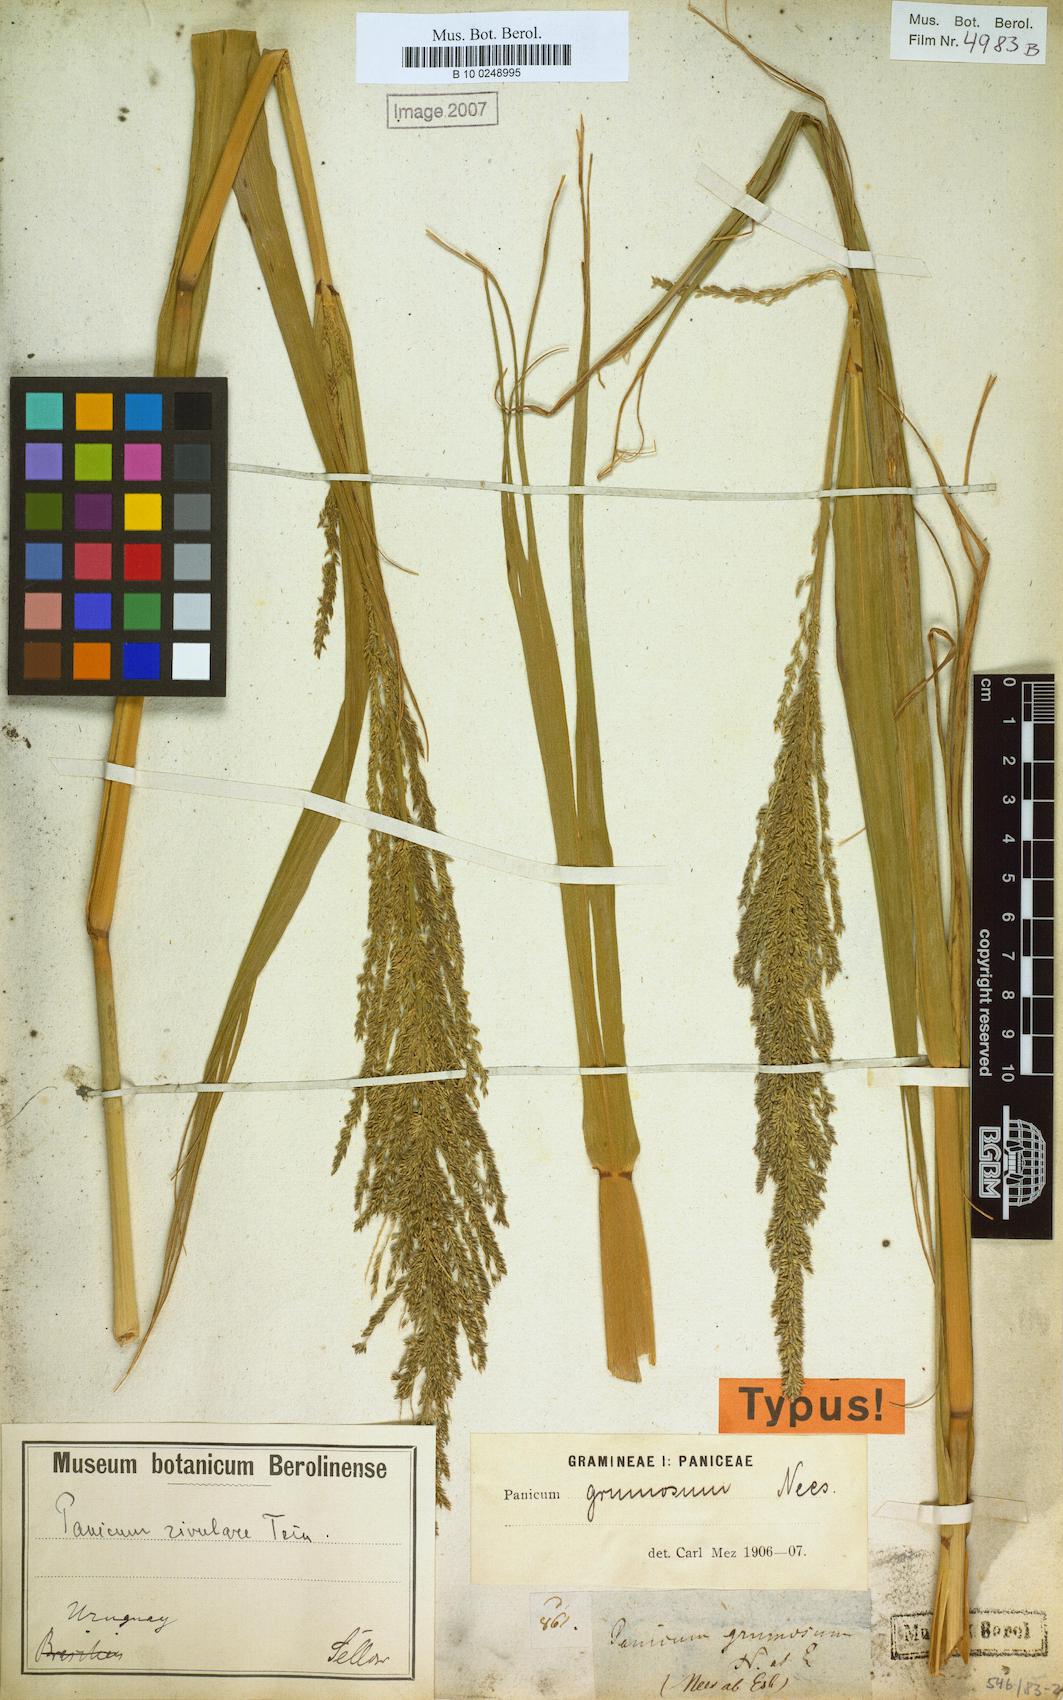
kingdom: Plantae
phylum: Tracheophyta
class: Liliopsida
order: Poales
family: Poaceae
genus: Hymenachne
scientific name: Hymenachne grumosa
